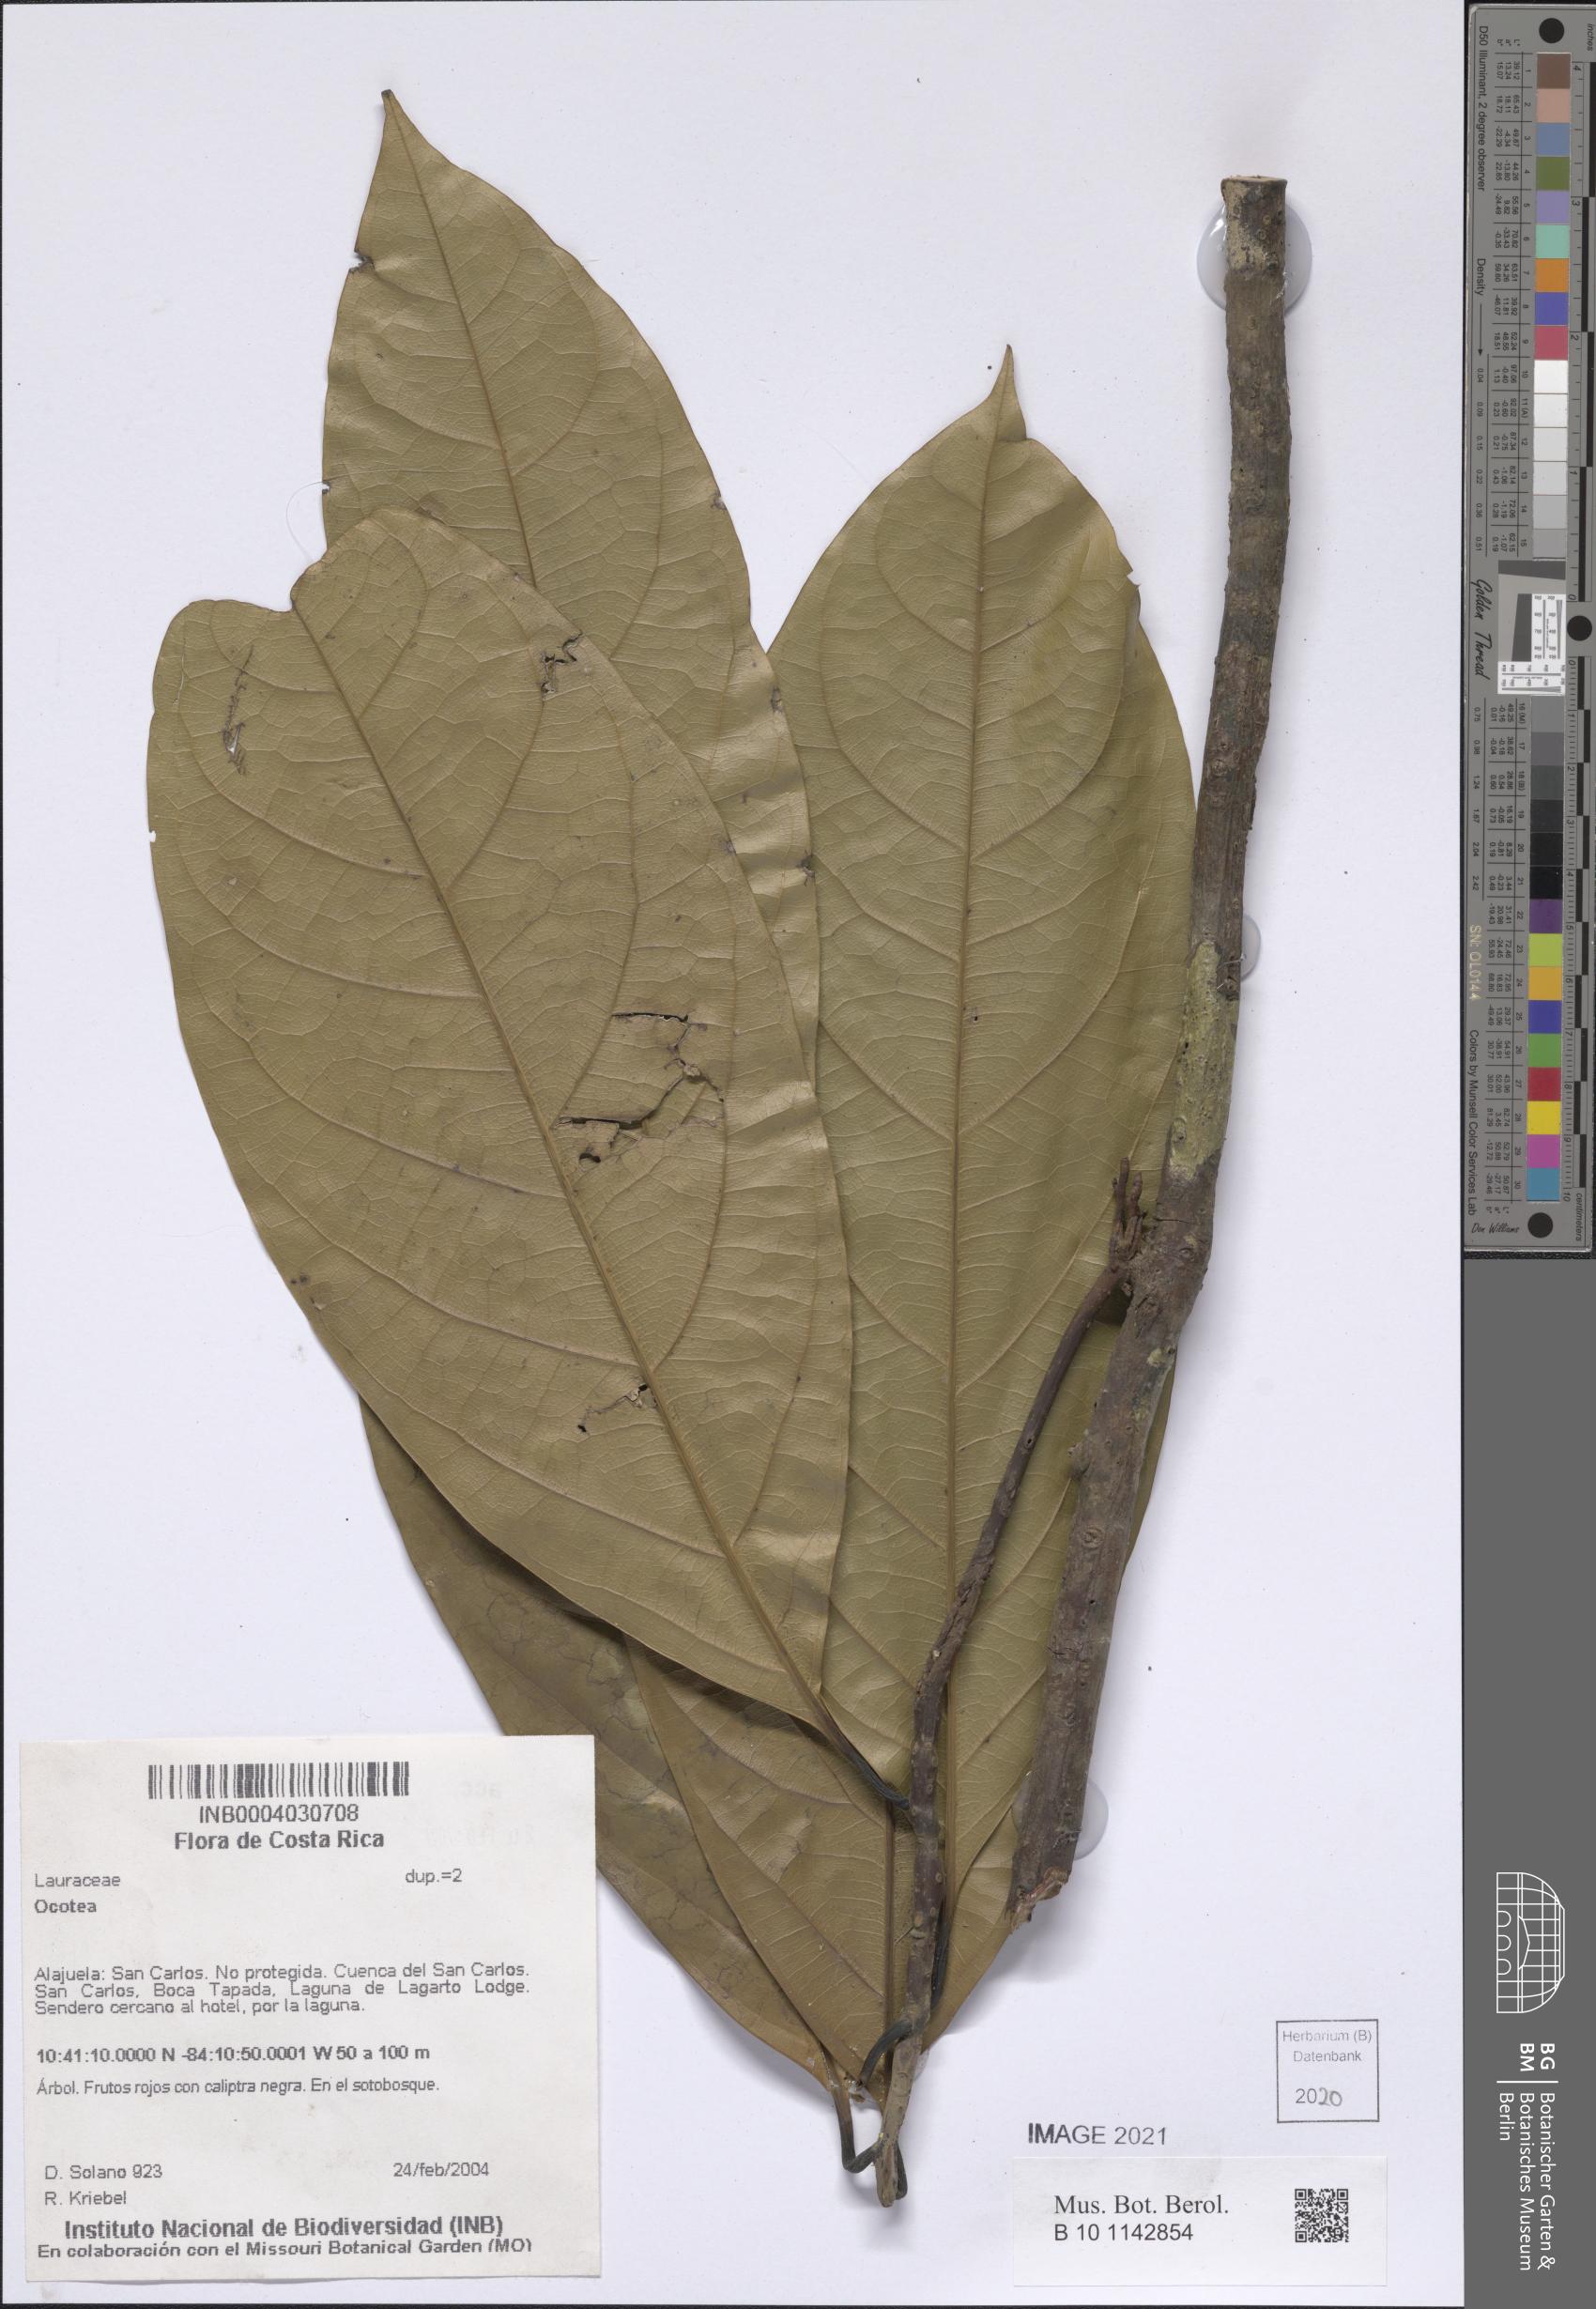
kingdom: Plantae
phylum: Tracheophyta
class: Magnoliopsida
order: Laurales
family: Lauraceae
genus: Ocotea
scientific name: Ocotea
